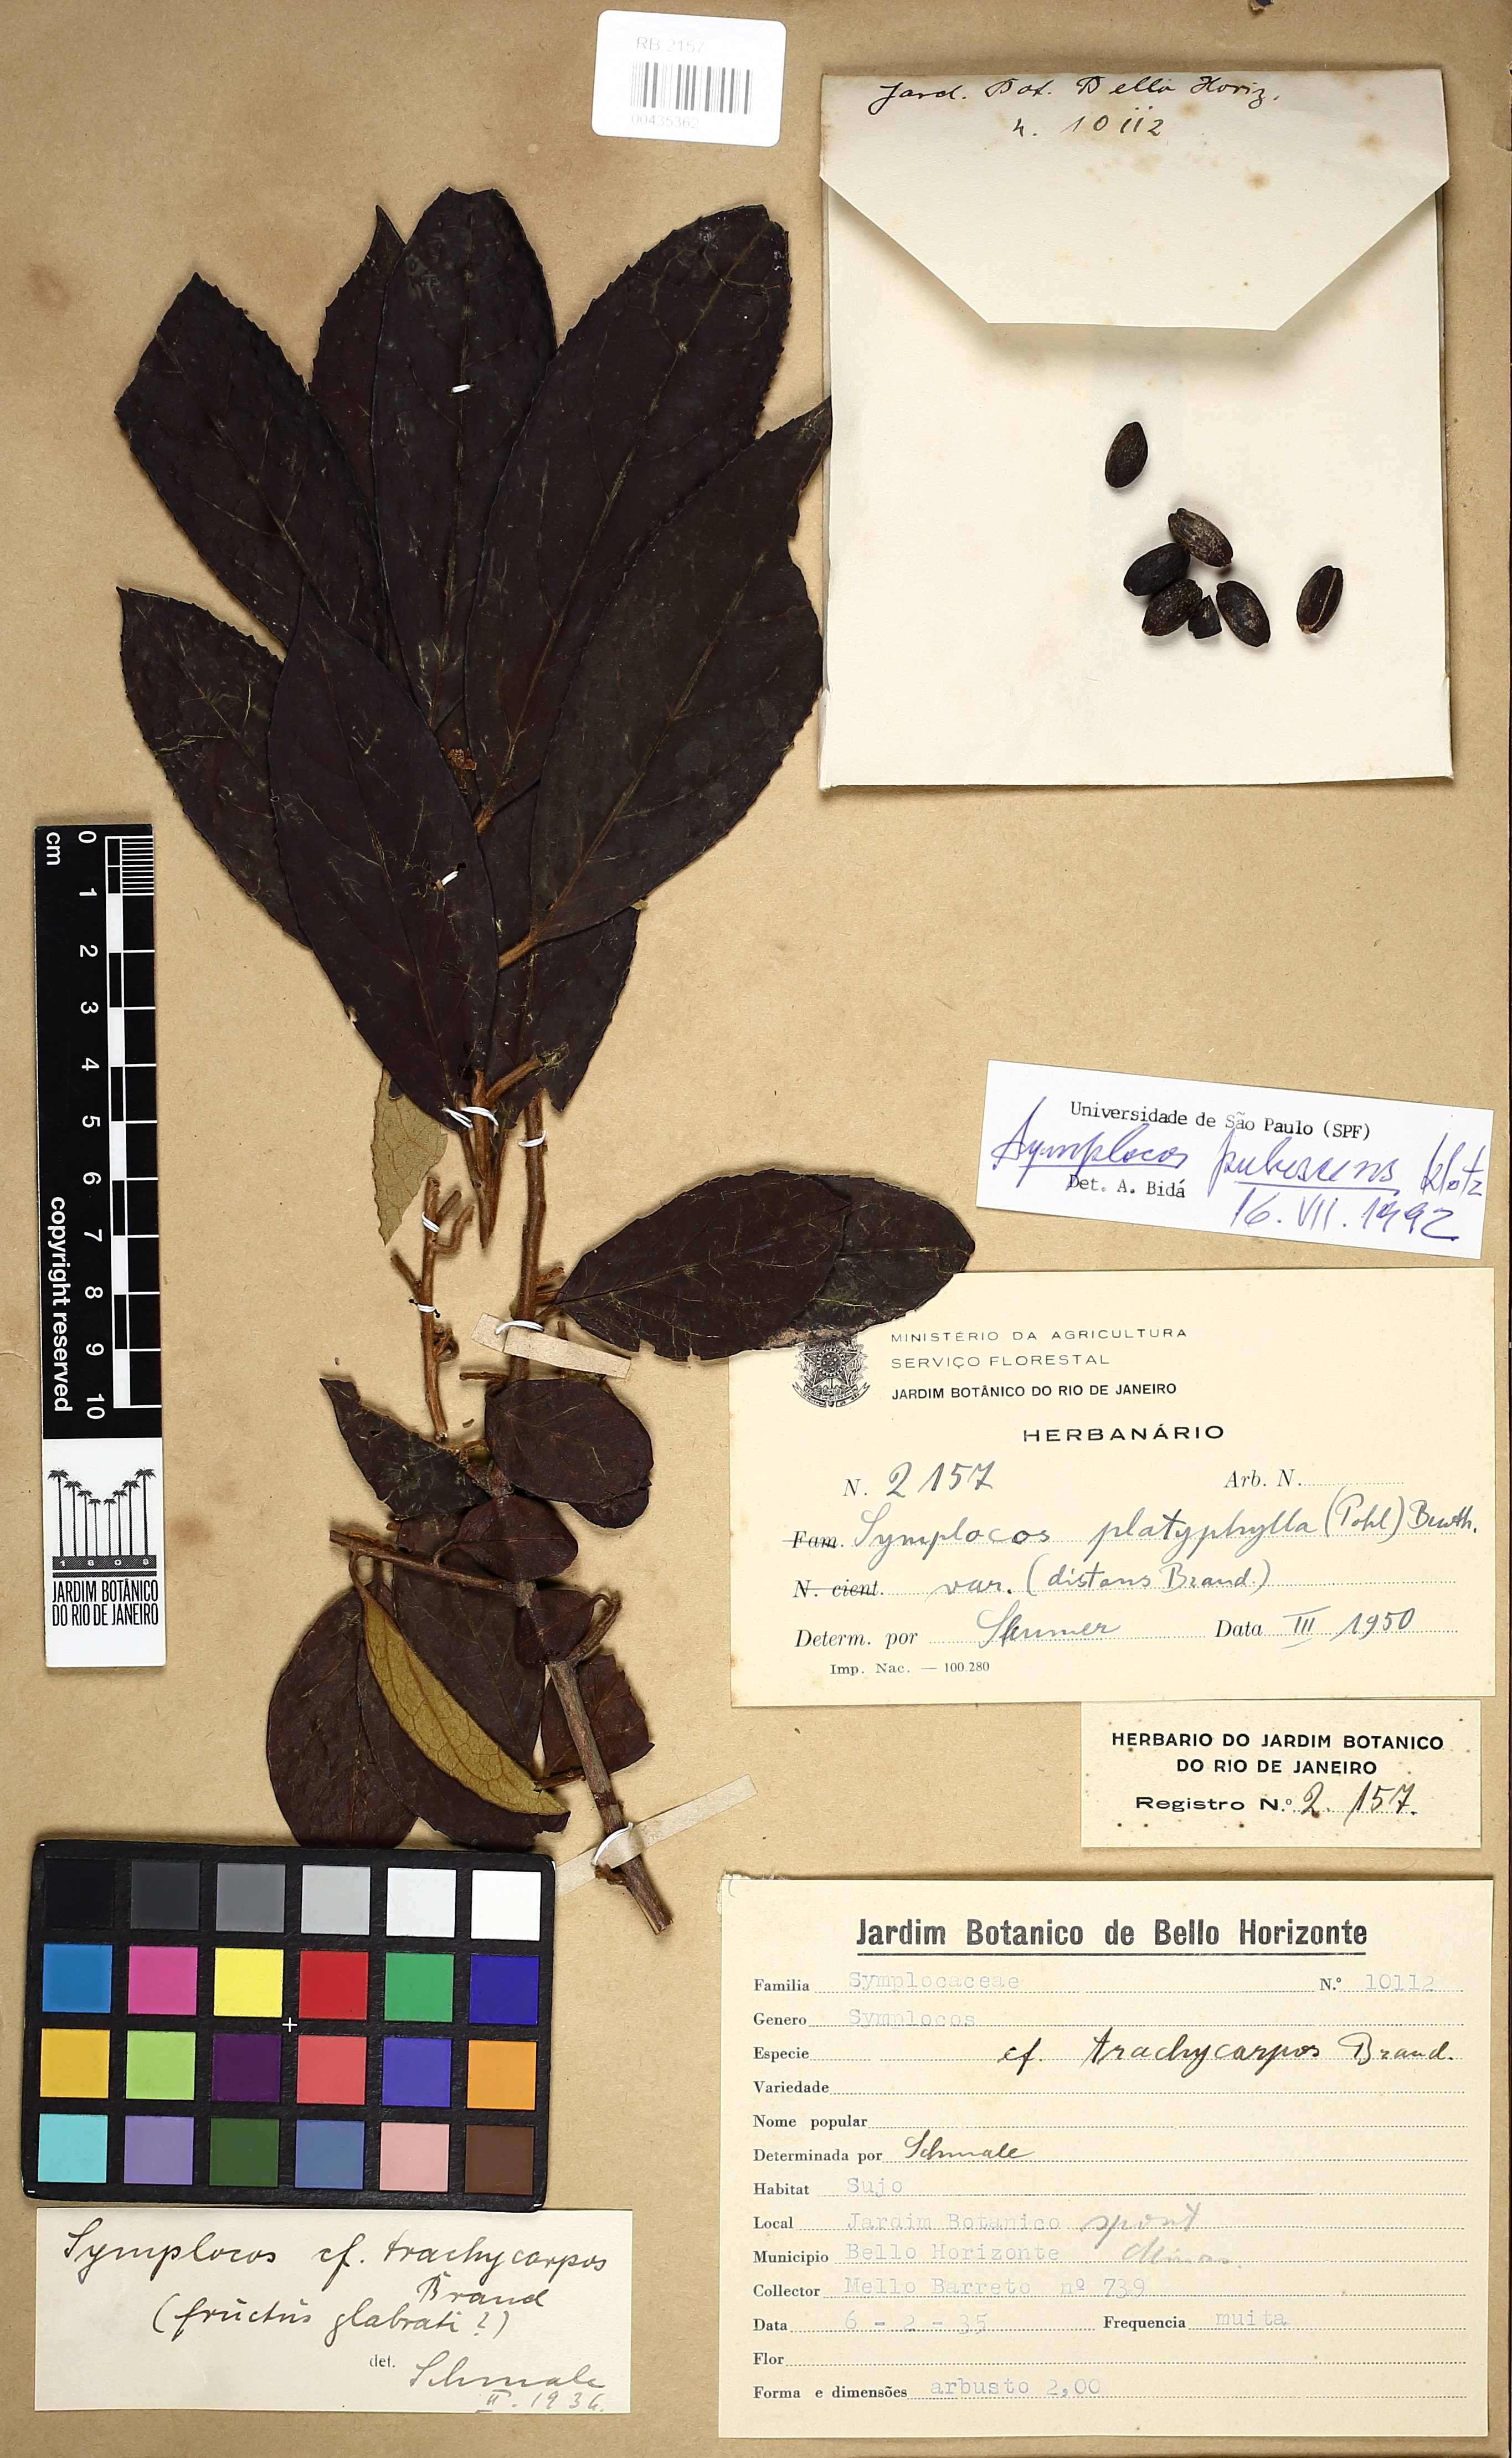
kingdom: Plantae
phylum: Tracheophyta
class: Magnoliopsida
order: Ericales
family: Symplocaceae
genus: Symplocos
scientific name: Symplocos pubescens
